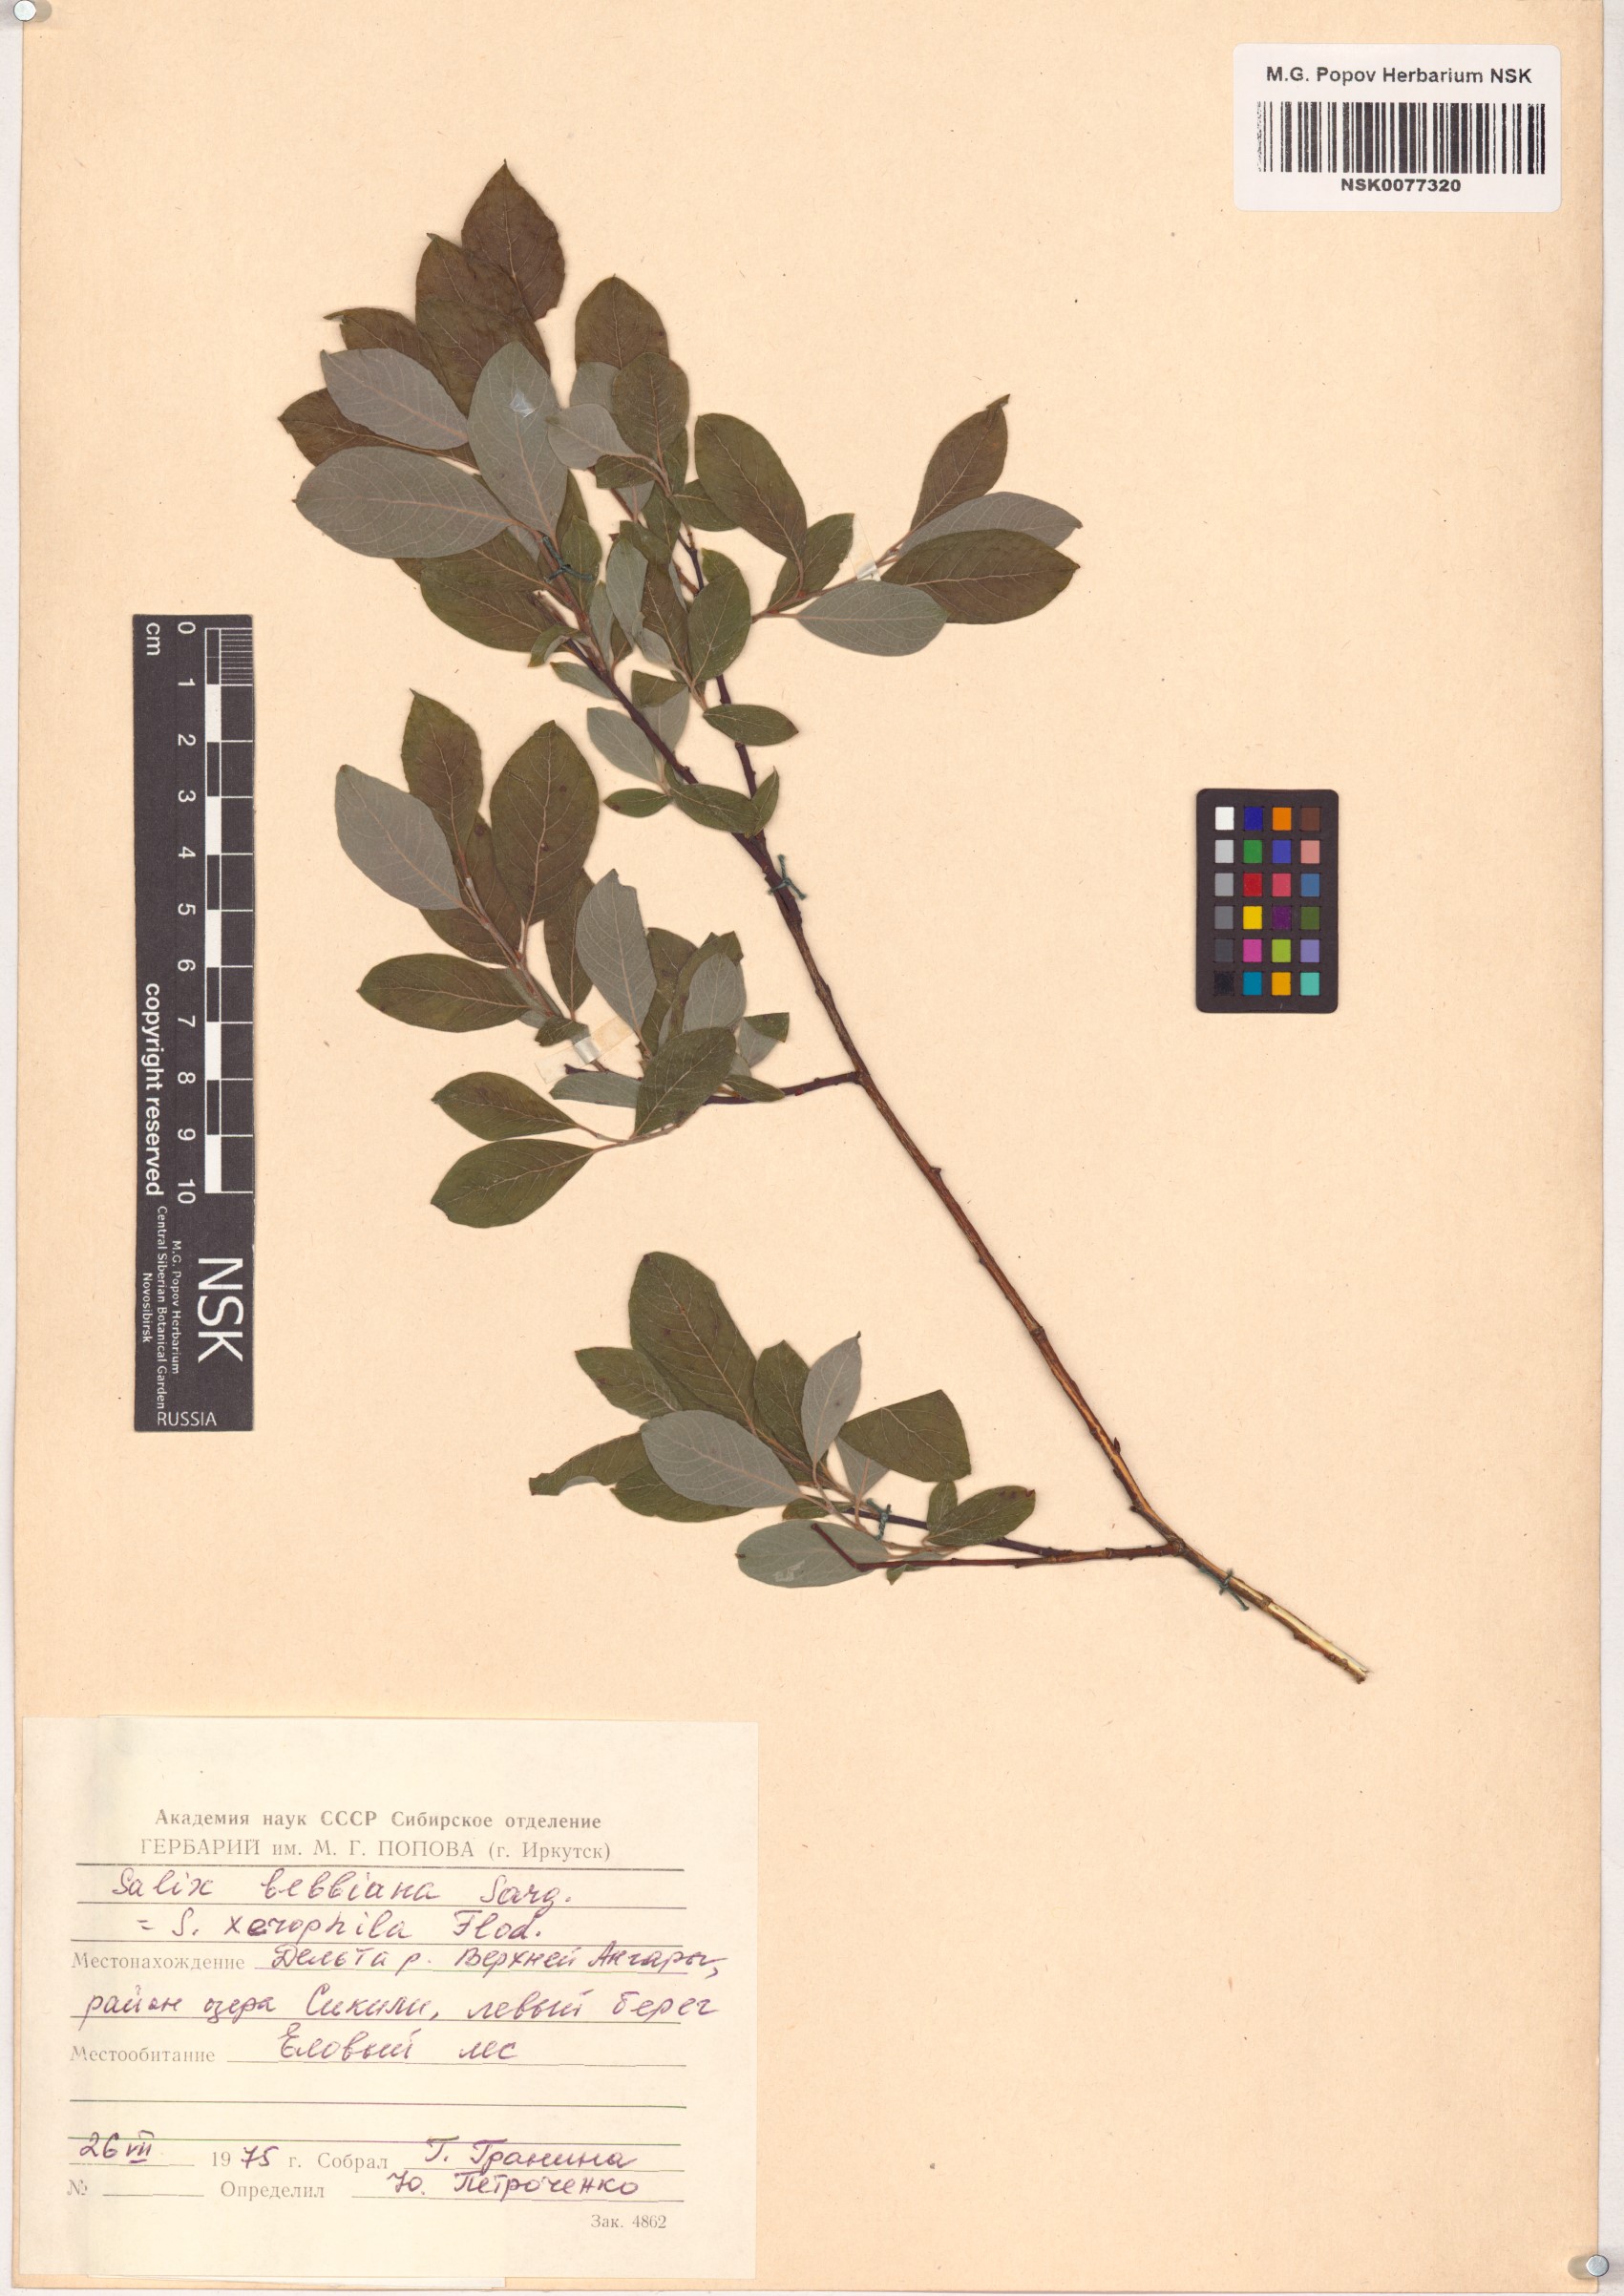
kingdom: Plantae
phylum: Tracheophyta
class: Magnoliopsida
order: Malpighiales
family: Salicaceae
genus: Salix
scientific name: Salix bebbiana
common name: Bebb's willow
